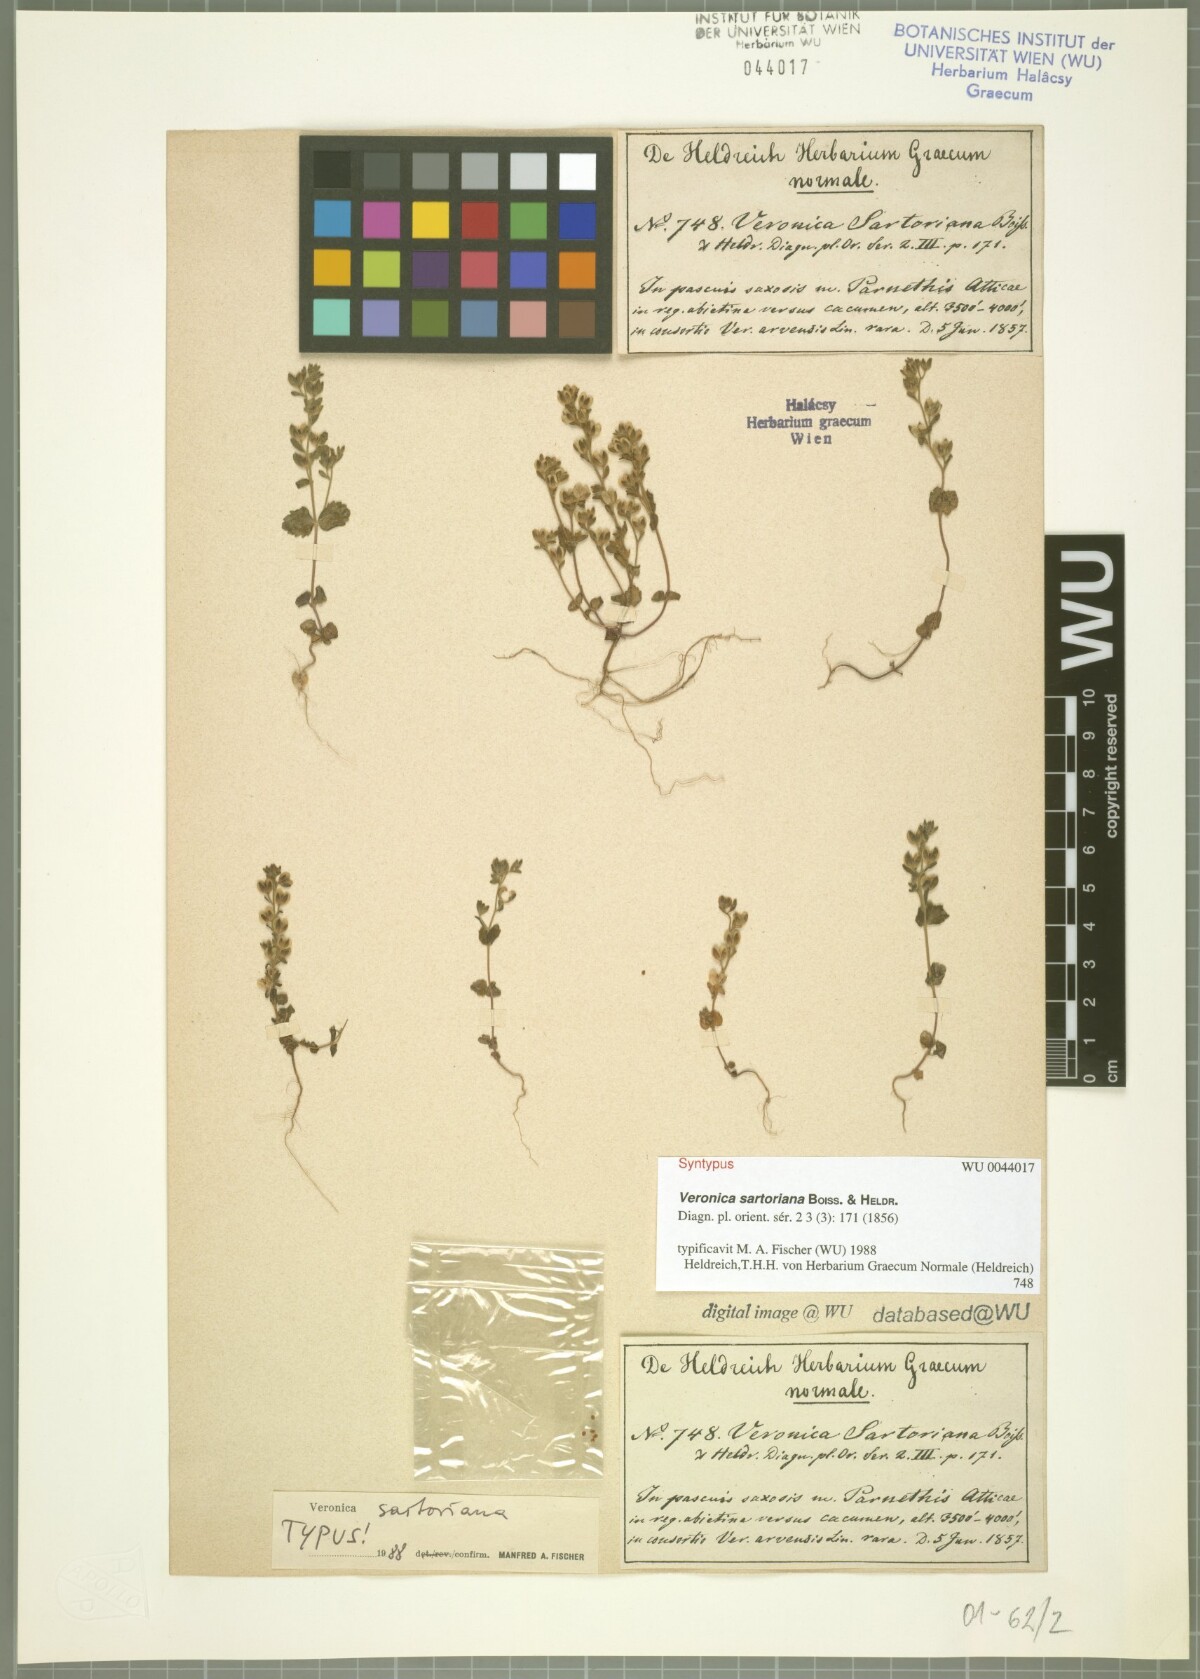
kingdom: Plantae
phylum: Tracheophyta
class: Magnoliopsida
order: Lamiales
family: Plantaginaceae
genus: Veronica
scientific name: Veronica sartoriana
